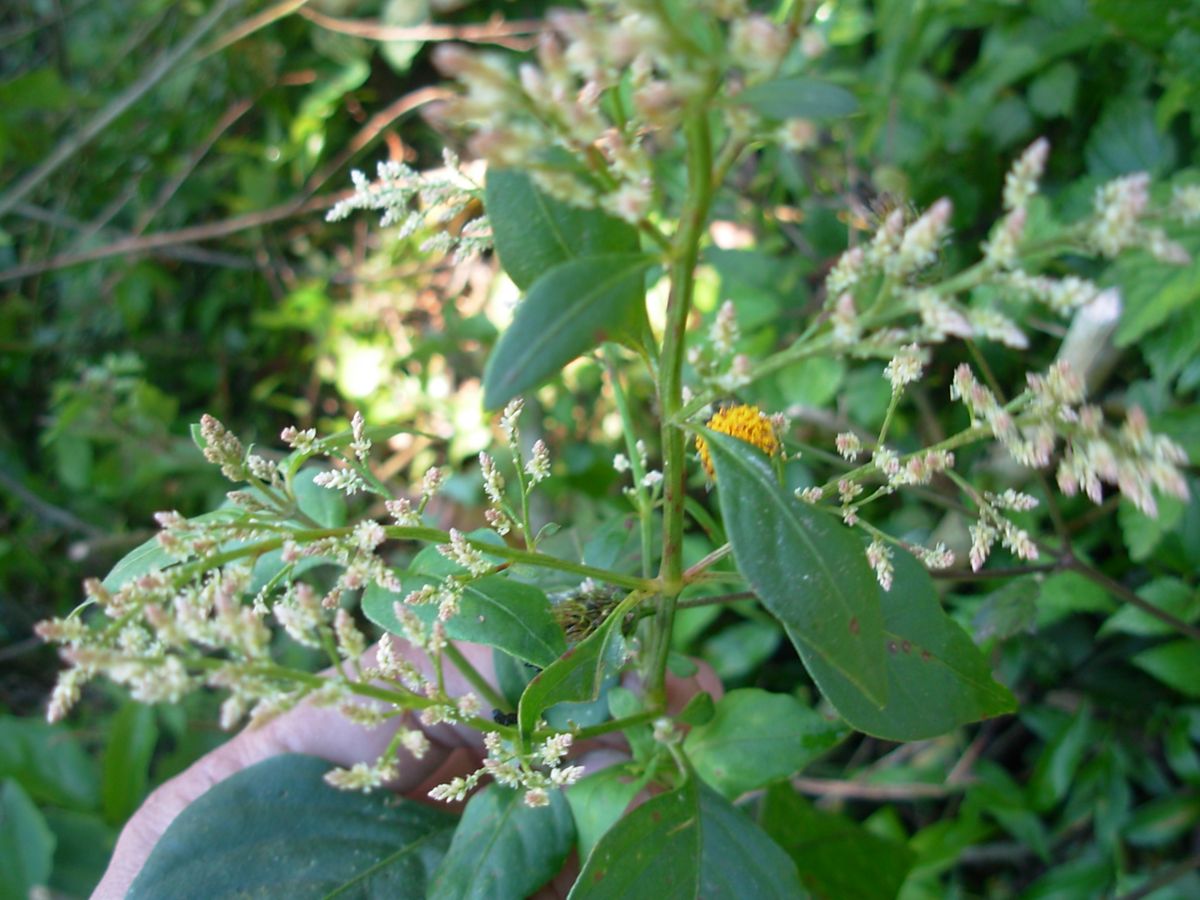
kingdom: Plantae
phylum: Tracheophyta
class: Magnoliopsida
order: Caryophyllales
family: Amaranthaceae
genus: Iresine
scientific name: Iresine diffusa
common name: Juba's-bush
